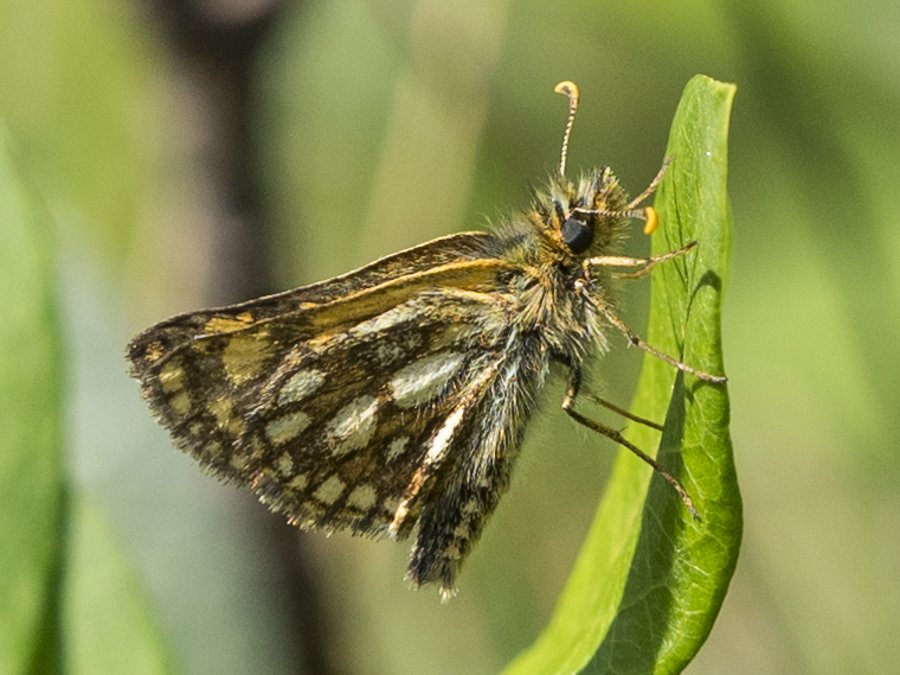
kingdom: Animalia
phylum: Arthropoda
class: Insecta
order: Lepidoptera
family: Hesperiidae
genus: Carterocephalus
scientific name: Carterocephalus palaemon
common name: Chequered Skipper
